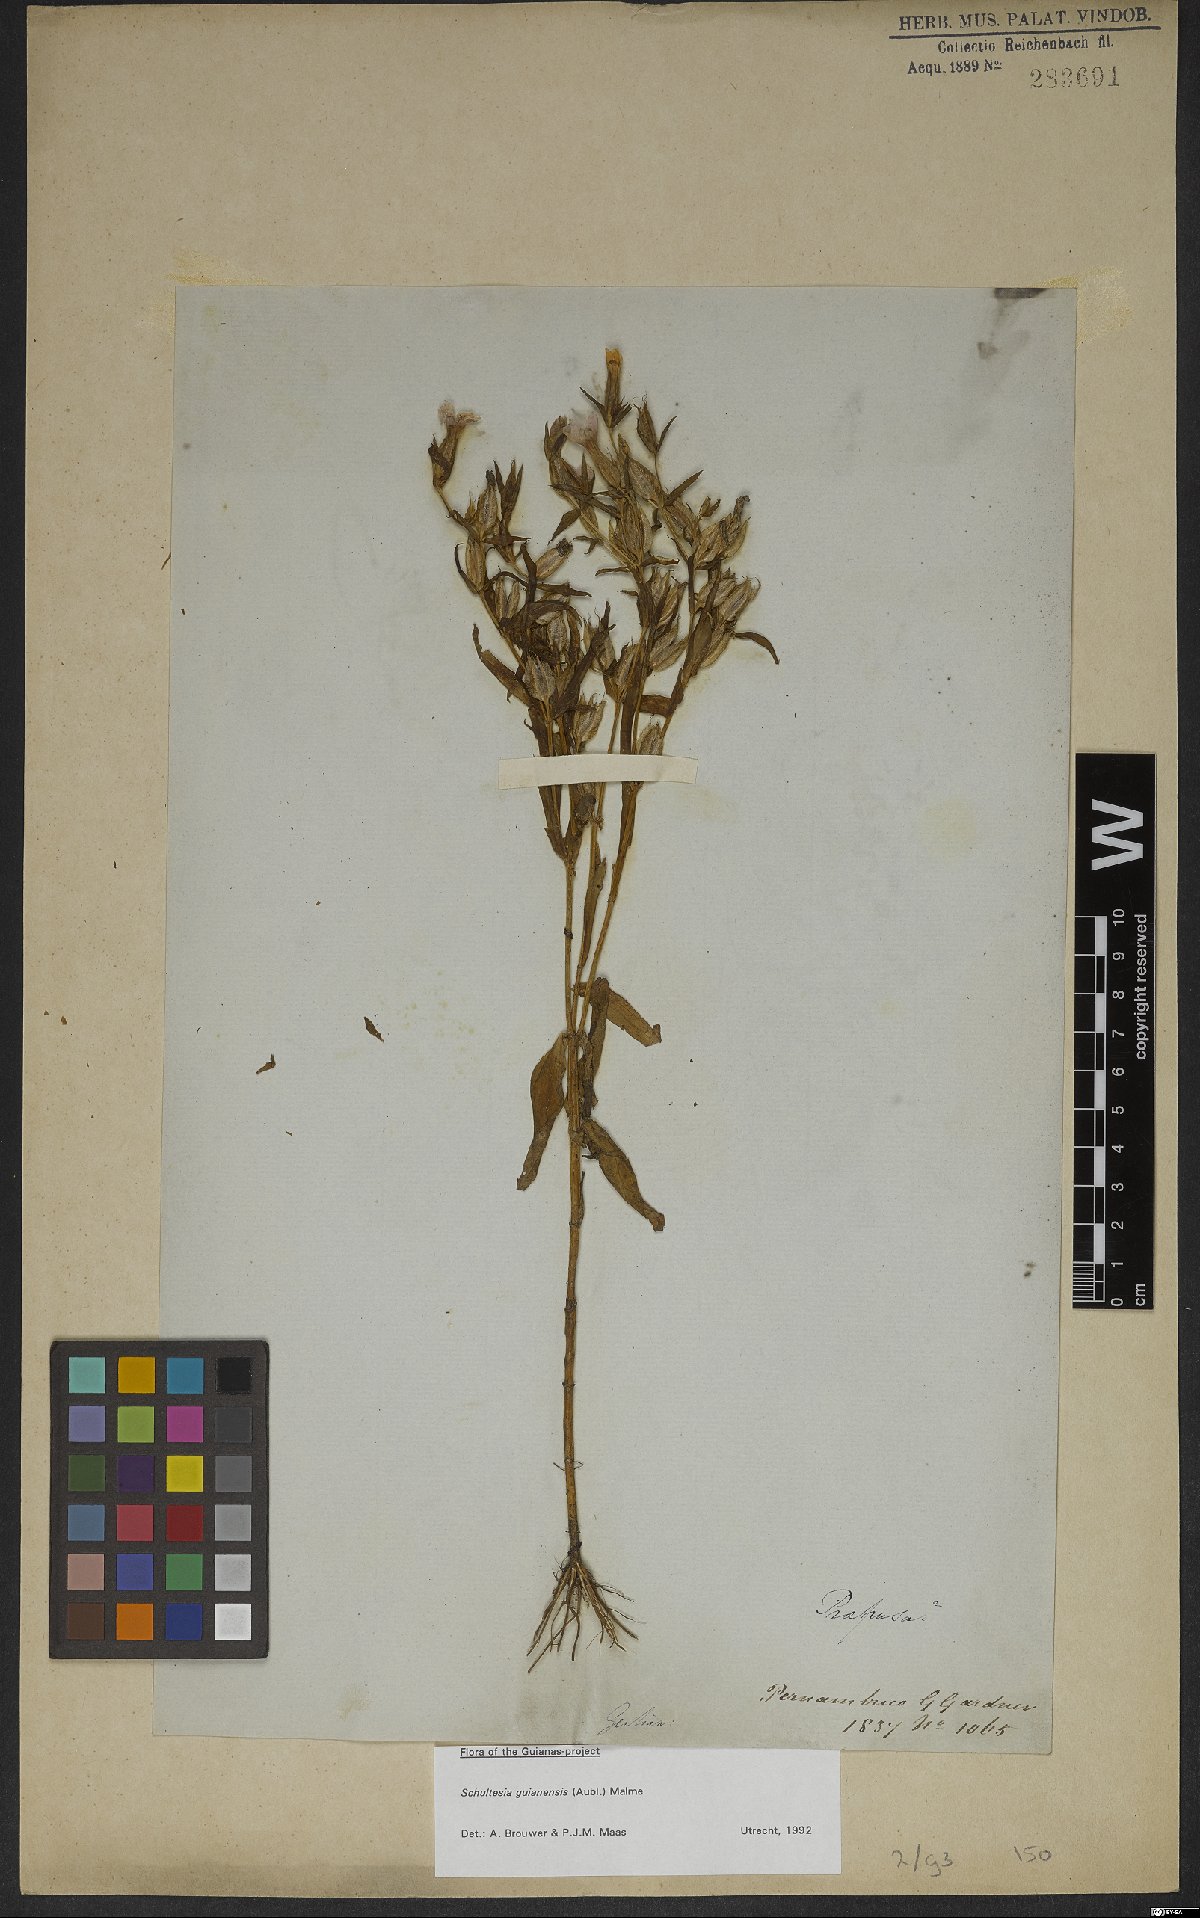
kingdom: Plantae
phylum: Tracheophyta
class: Magnoliopsida
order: Gentianales
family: Gentianaceae
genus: Schultesia
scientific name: Schultesia guianensis
